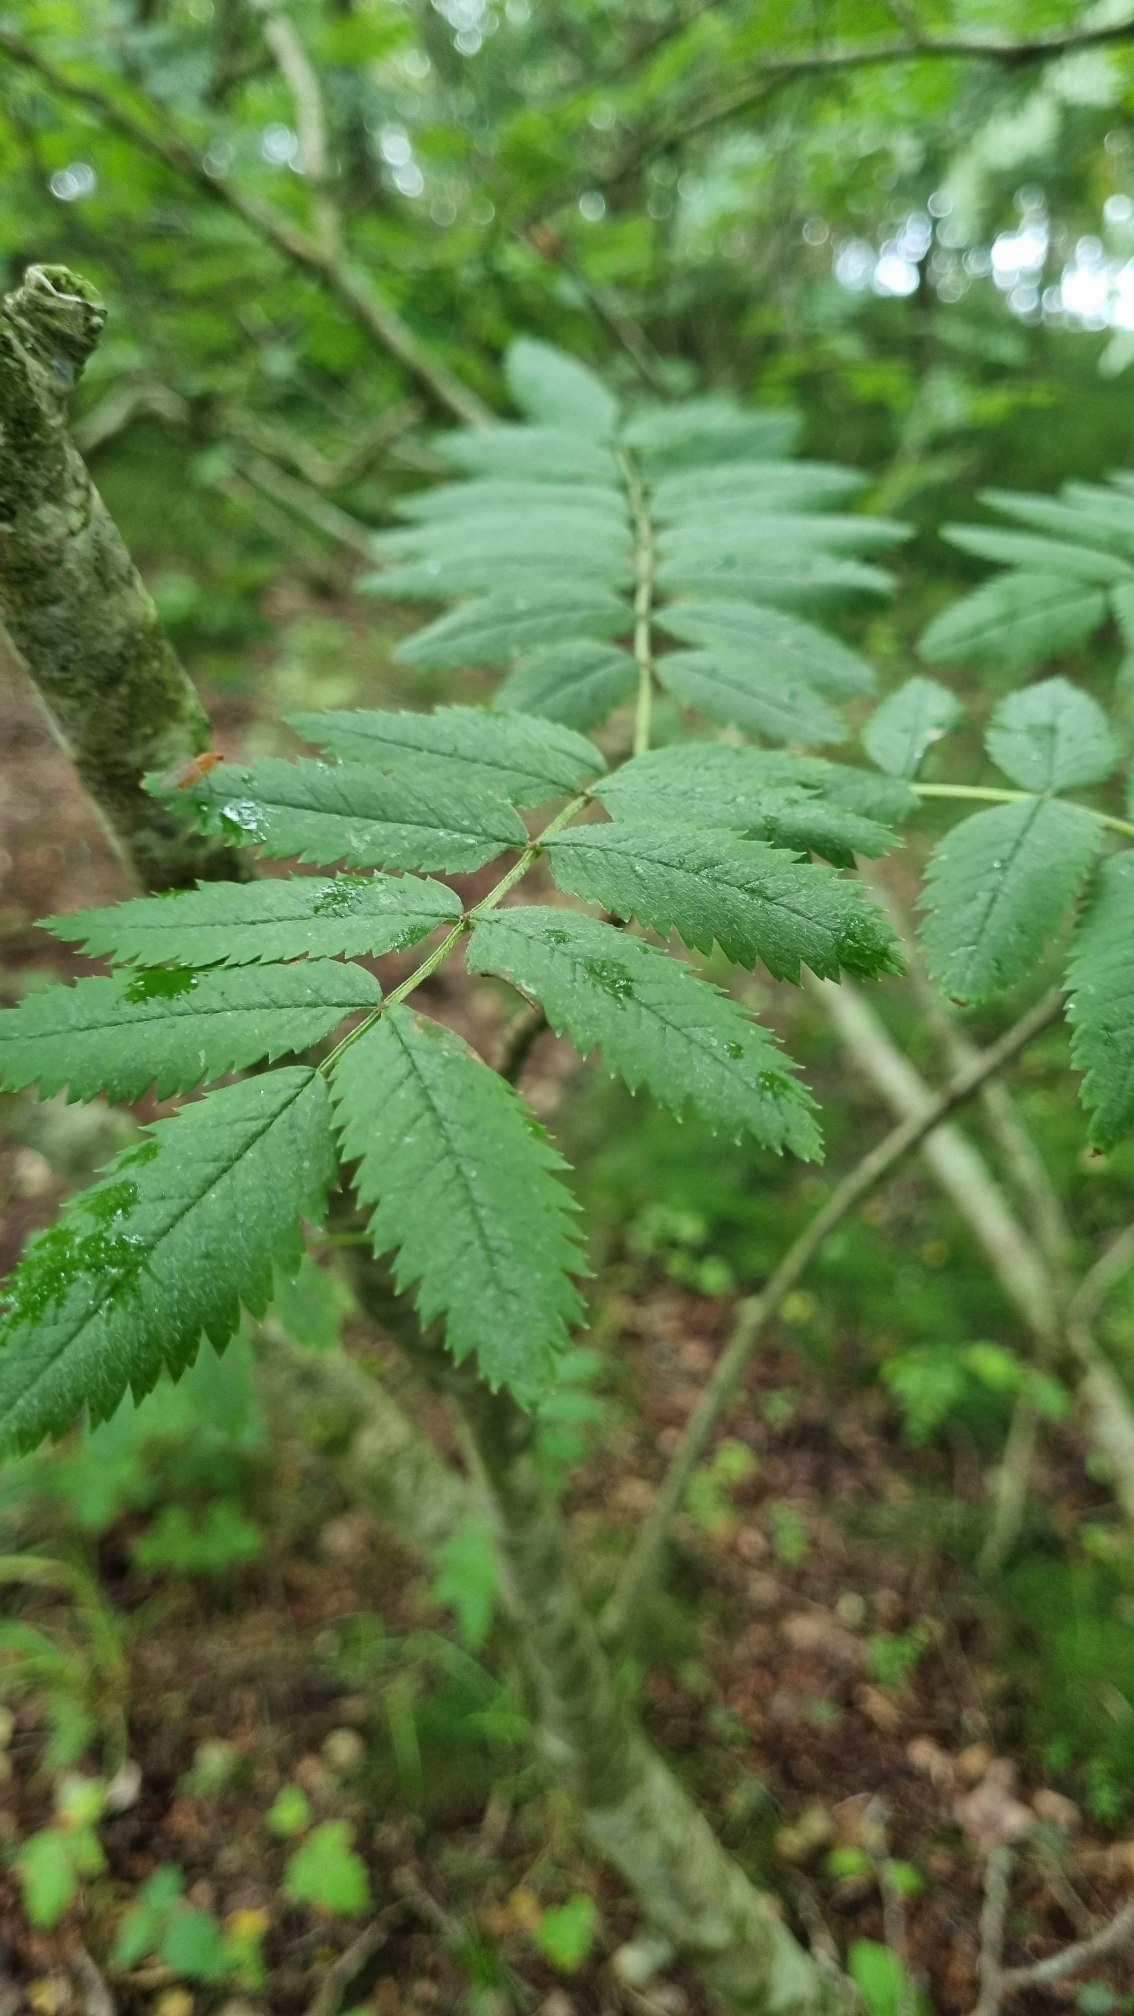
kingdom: Plantae
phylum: Tracheophyta
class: Magnoliopsida
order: Rosales
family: Rosaceae
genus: Sorbus
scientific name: Sorbus aucuparia
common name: Almindelig røn
